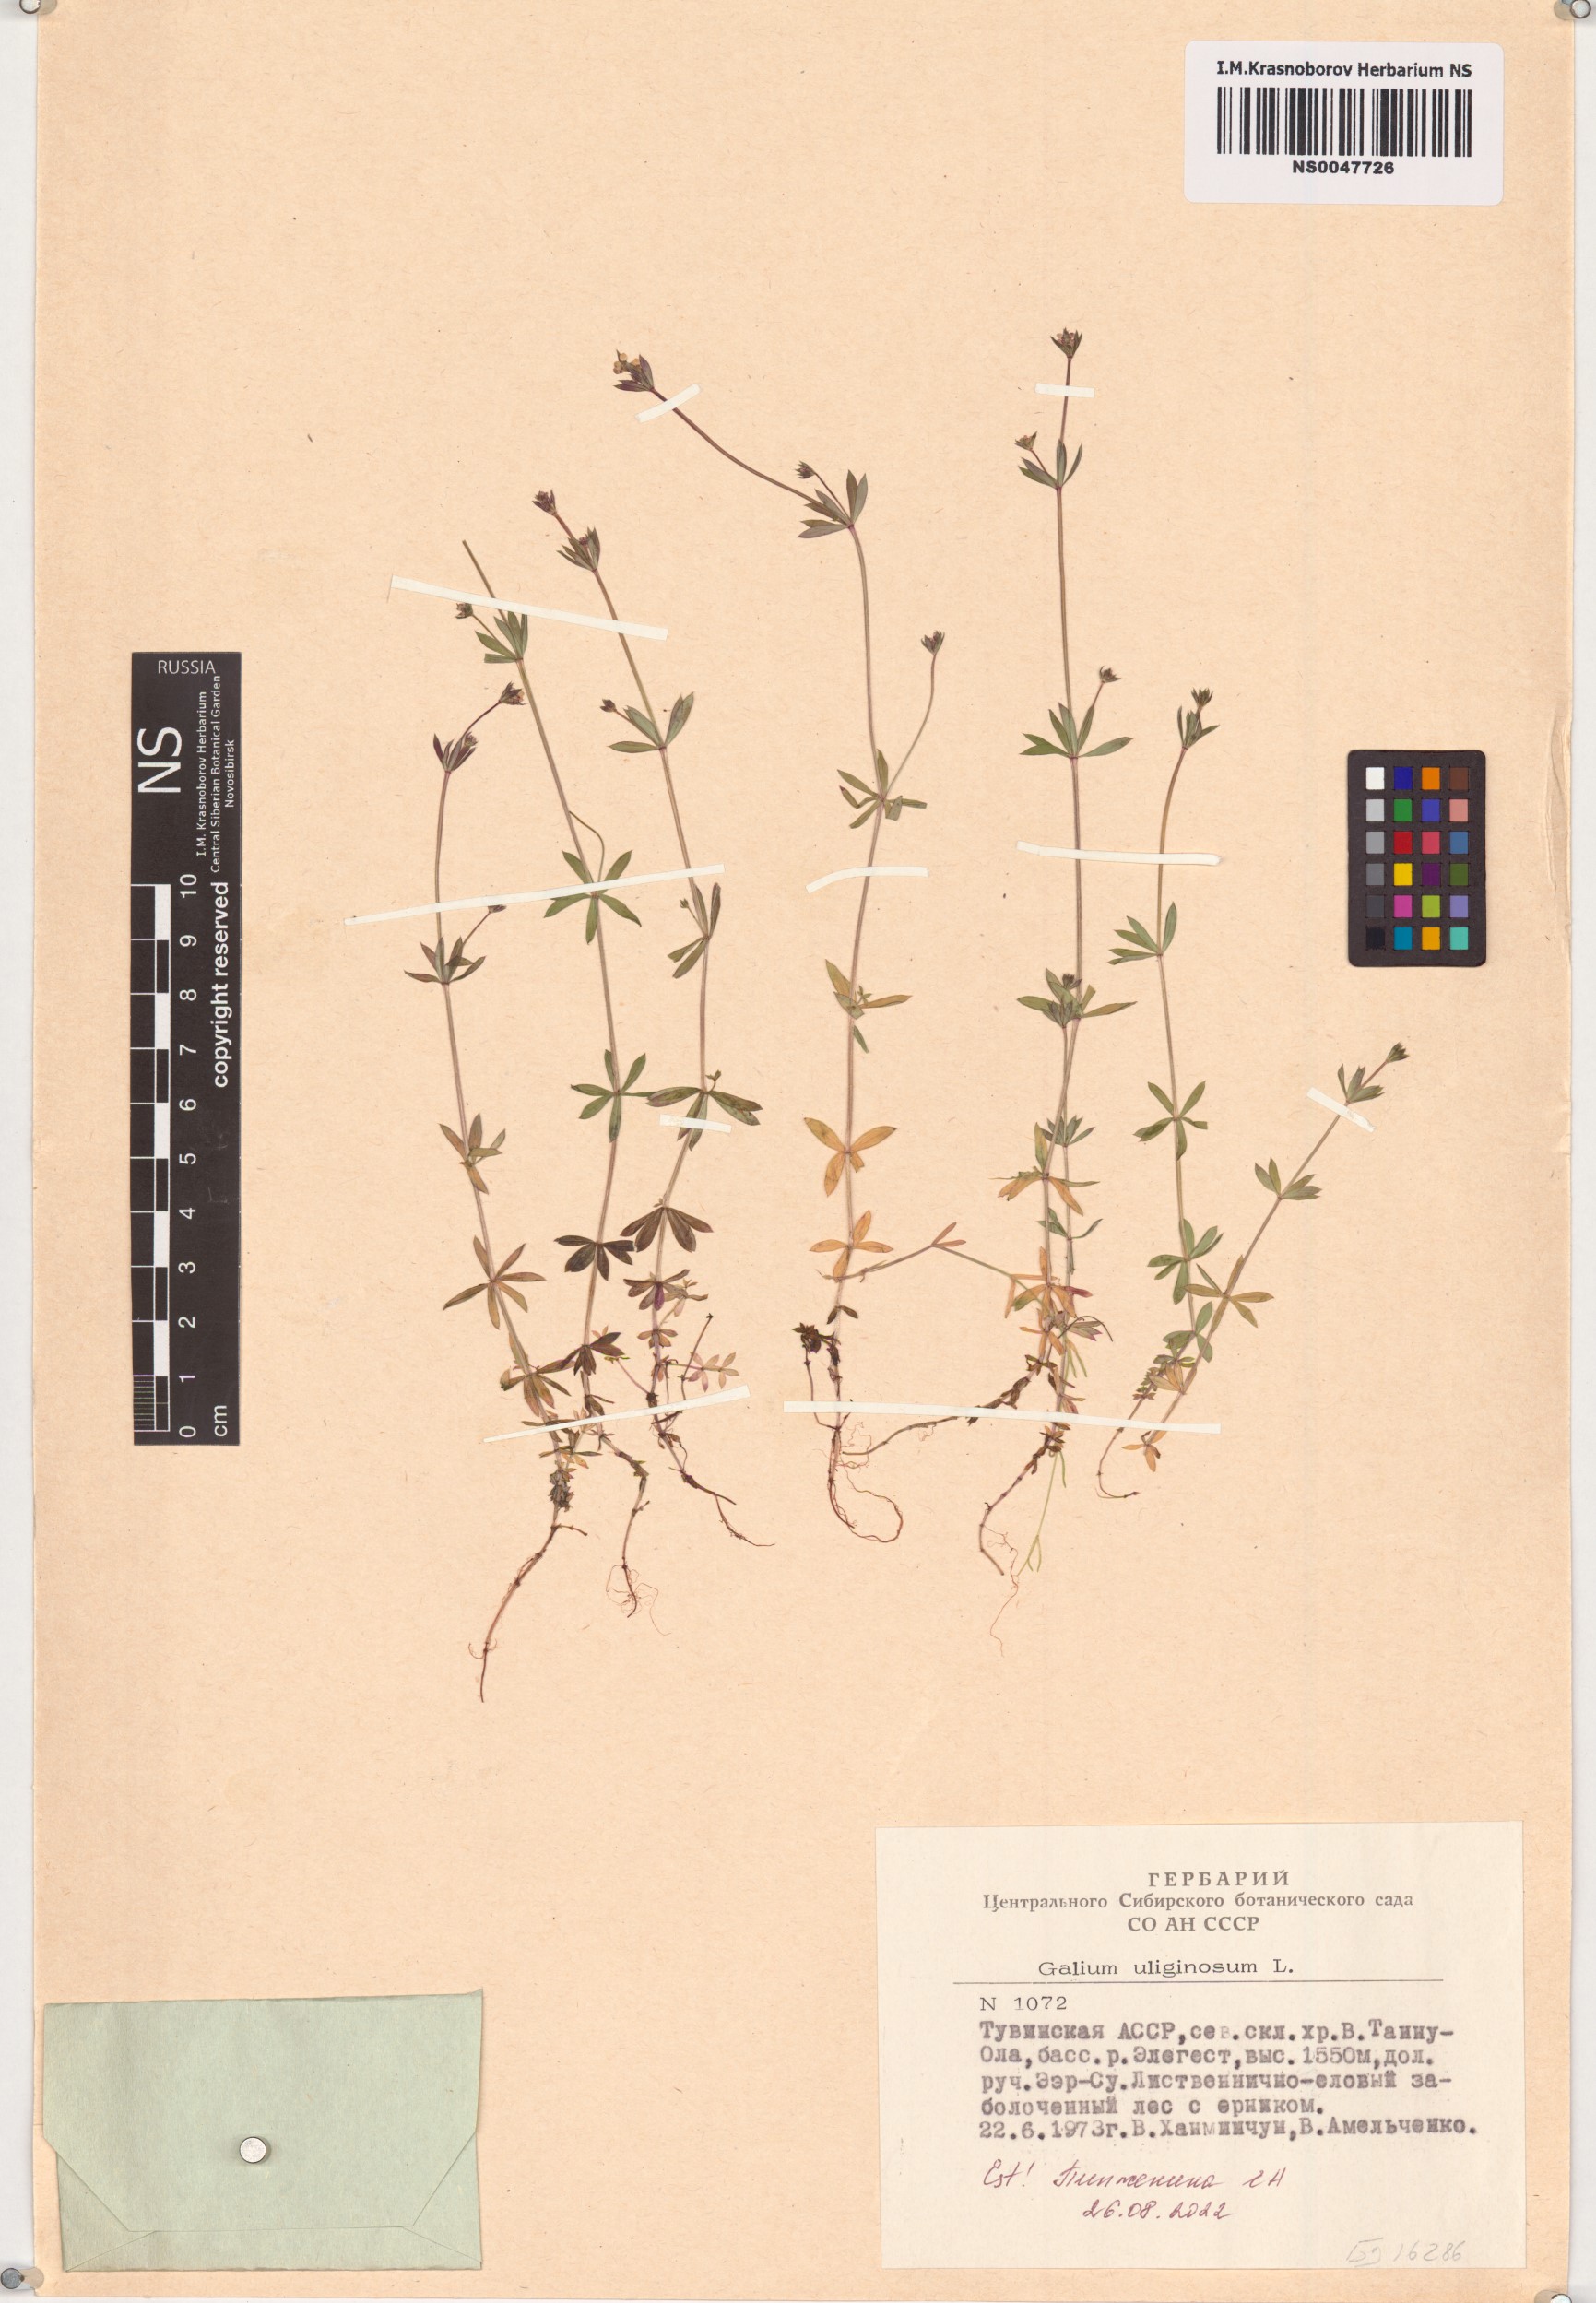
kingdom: Plantae
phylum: Tracheophyta
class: Magnoliopsida
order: Gentianales
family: Rubiaceae
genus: Galium
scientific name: Galium uliginosum
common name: Fen bedstraw
